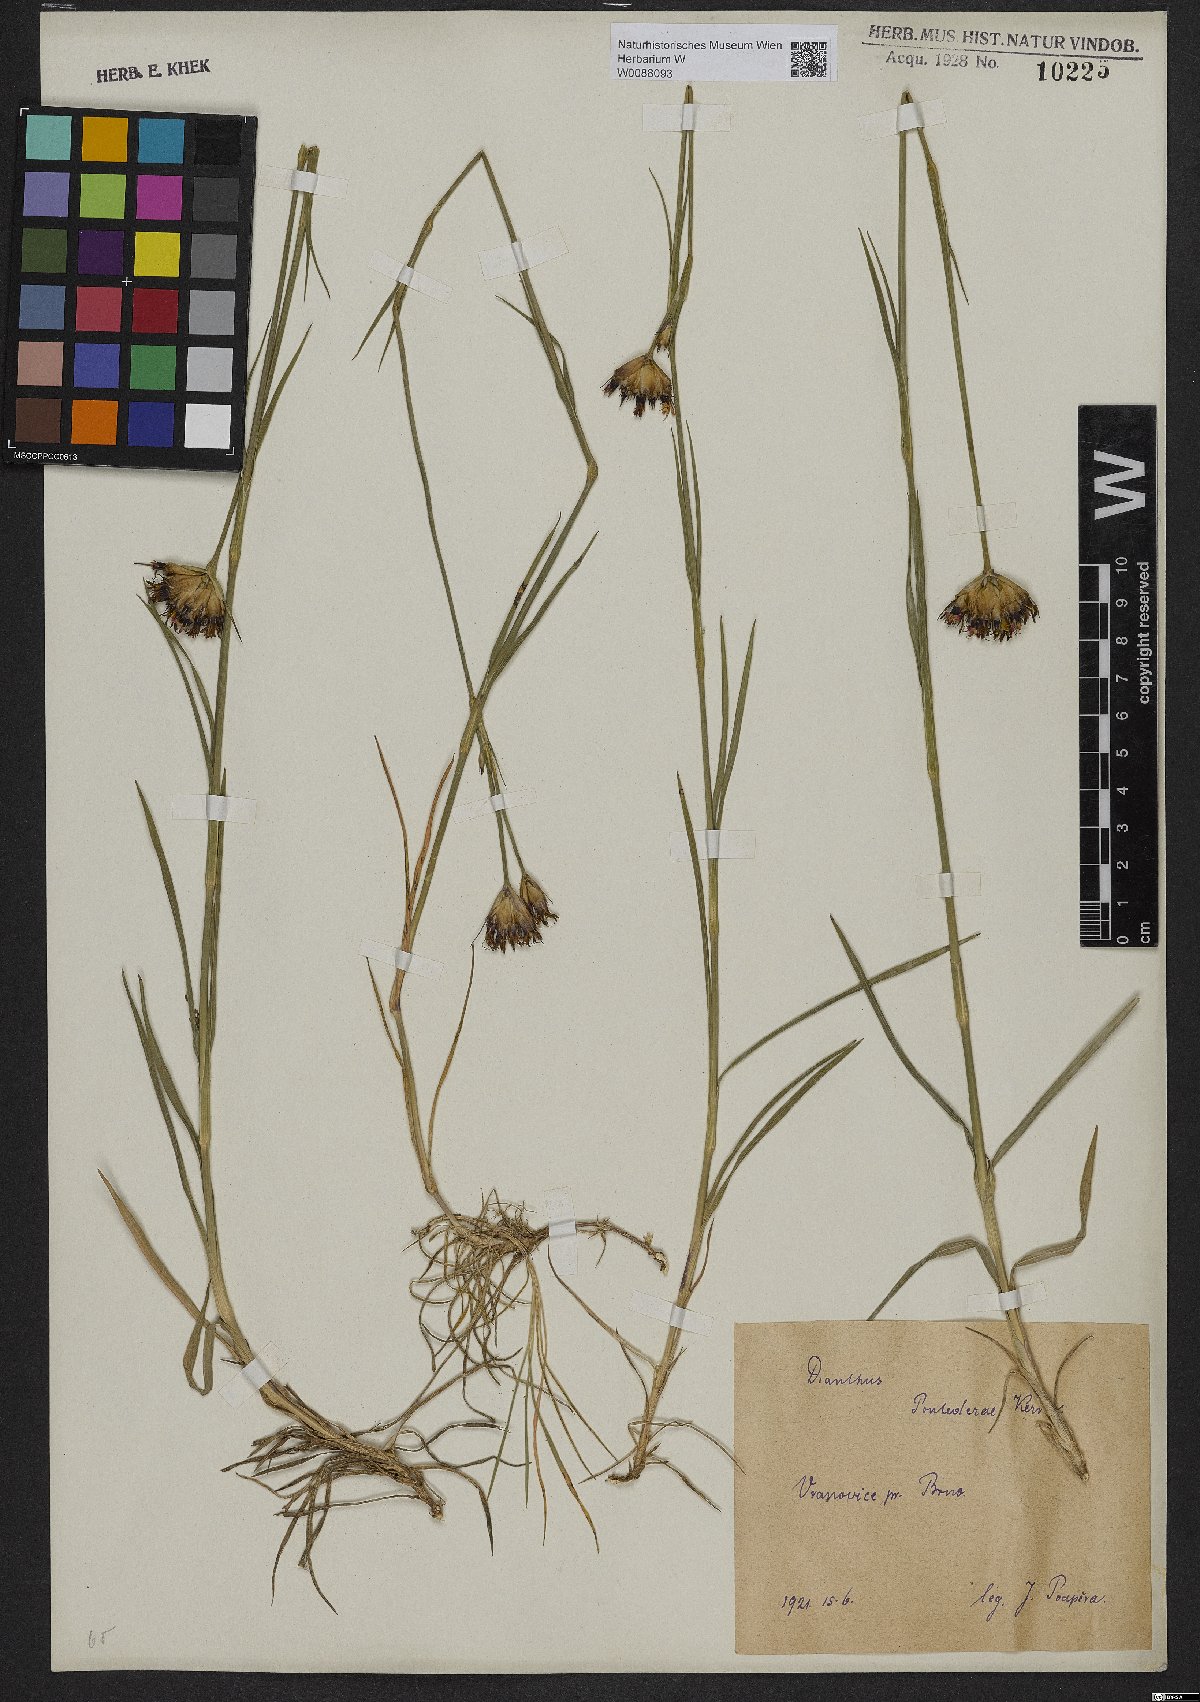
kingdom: Plantae
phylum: Tracheophyta
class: Magnoliopsida
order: Caryophyllales
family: Caryophyllaceae
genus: Dianthus
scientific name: Dianthus pontederae
